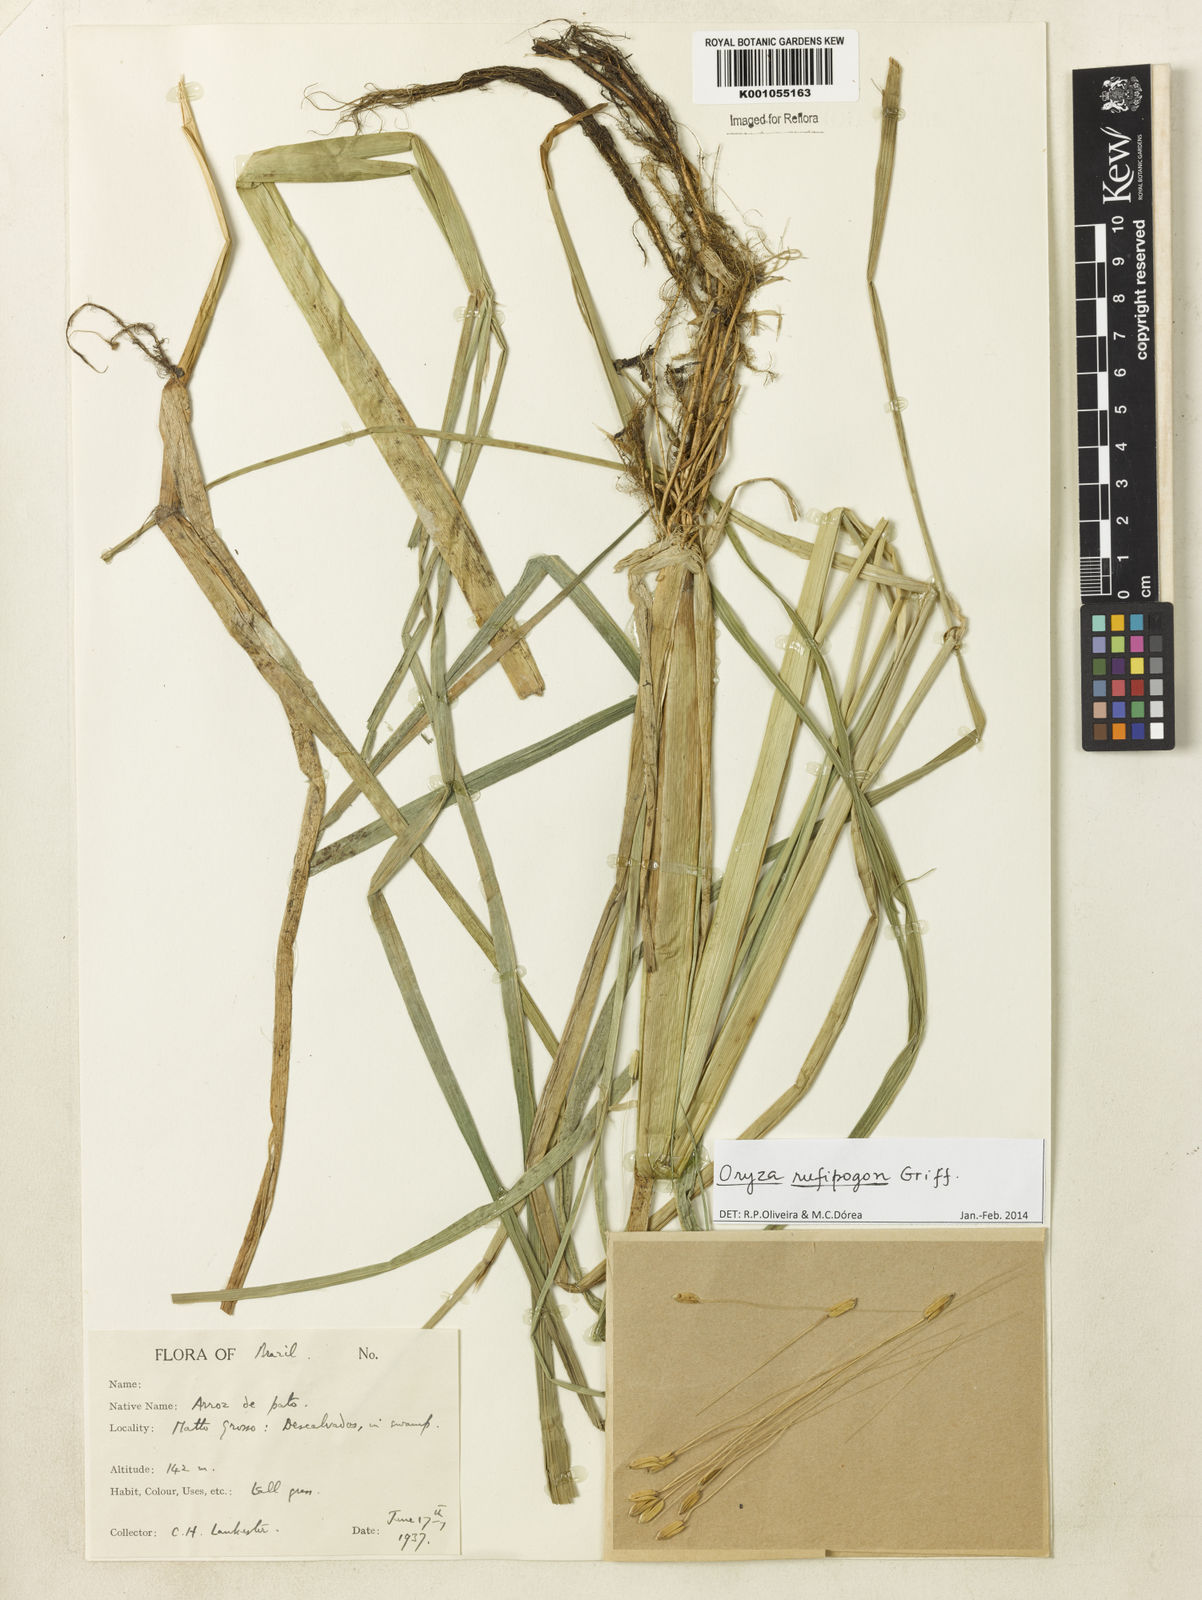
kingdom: Plantae
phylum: Tracheophyta
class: Liliopsida
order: Poales
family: Poaceae
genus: Oryza
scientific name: Oryza rufipogon
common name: Red rice
